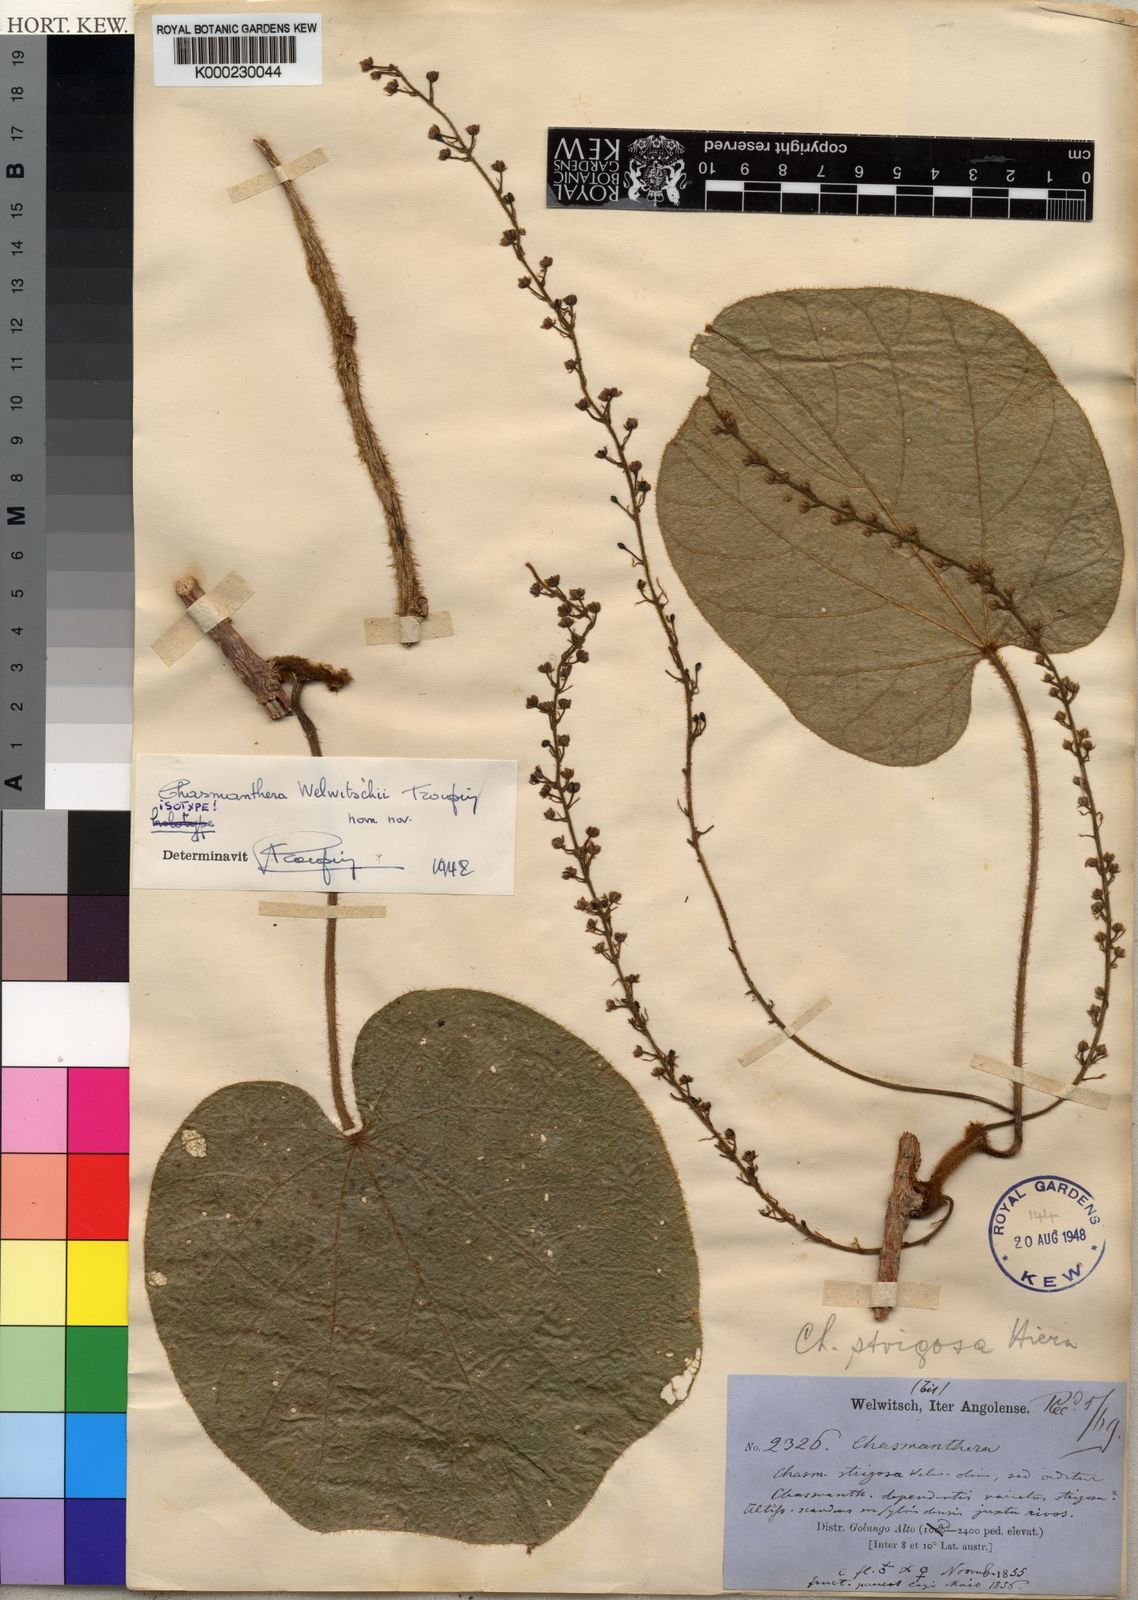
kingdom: Plantae
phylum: Tracheophyta
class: Magnoliopsida
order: Ranunculales
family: Menispermaceae
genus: Chasmanthera
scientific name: Chasmanthera welwitschii
